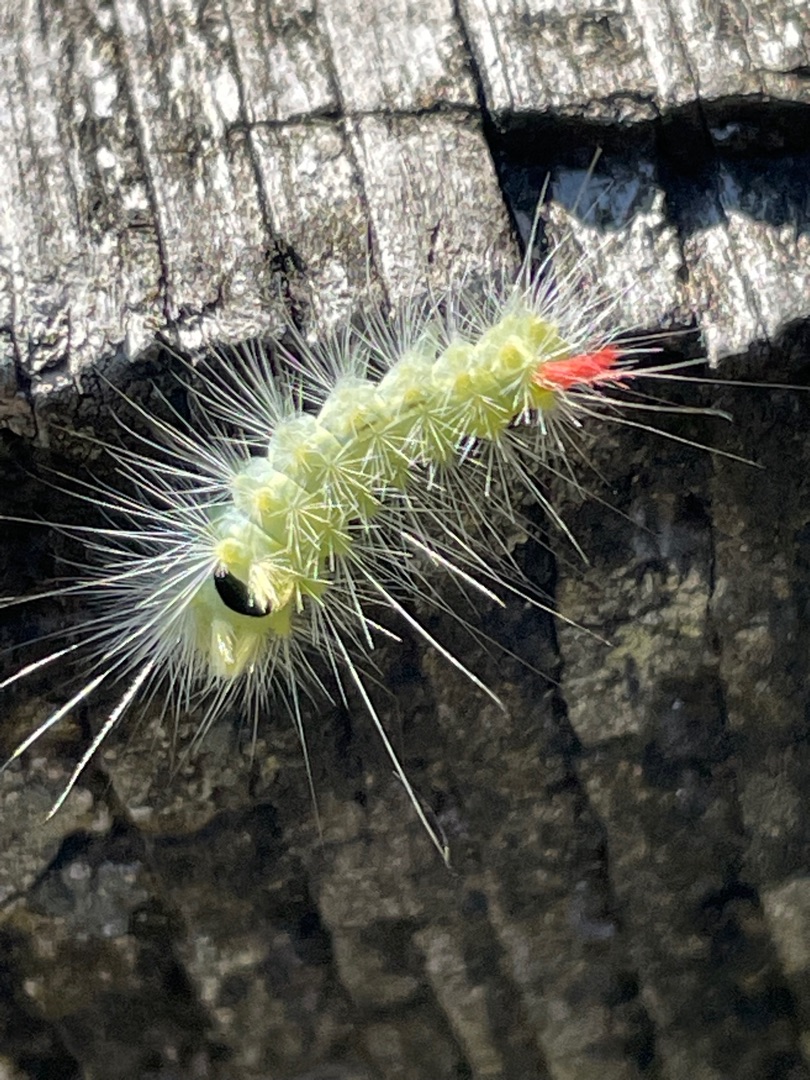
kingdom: Animalia
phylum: Arthropoda
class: Insecta
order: Lepidoptera
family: Erebidae
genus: Calliteara
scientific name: Calliteara pudibunda
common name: Bøgenonne
